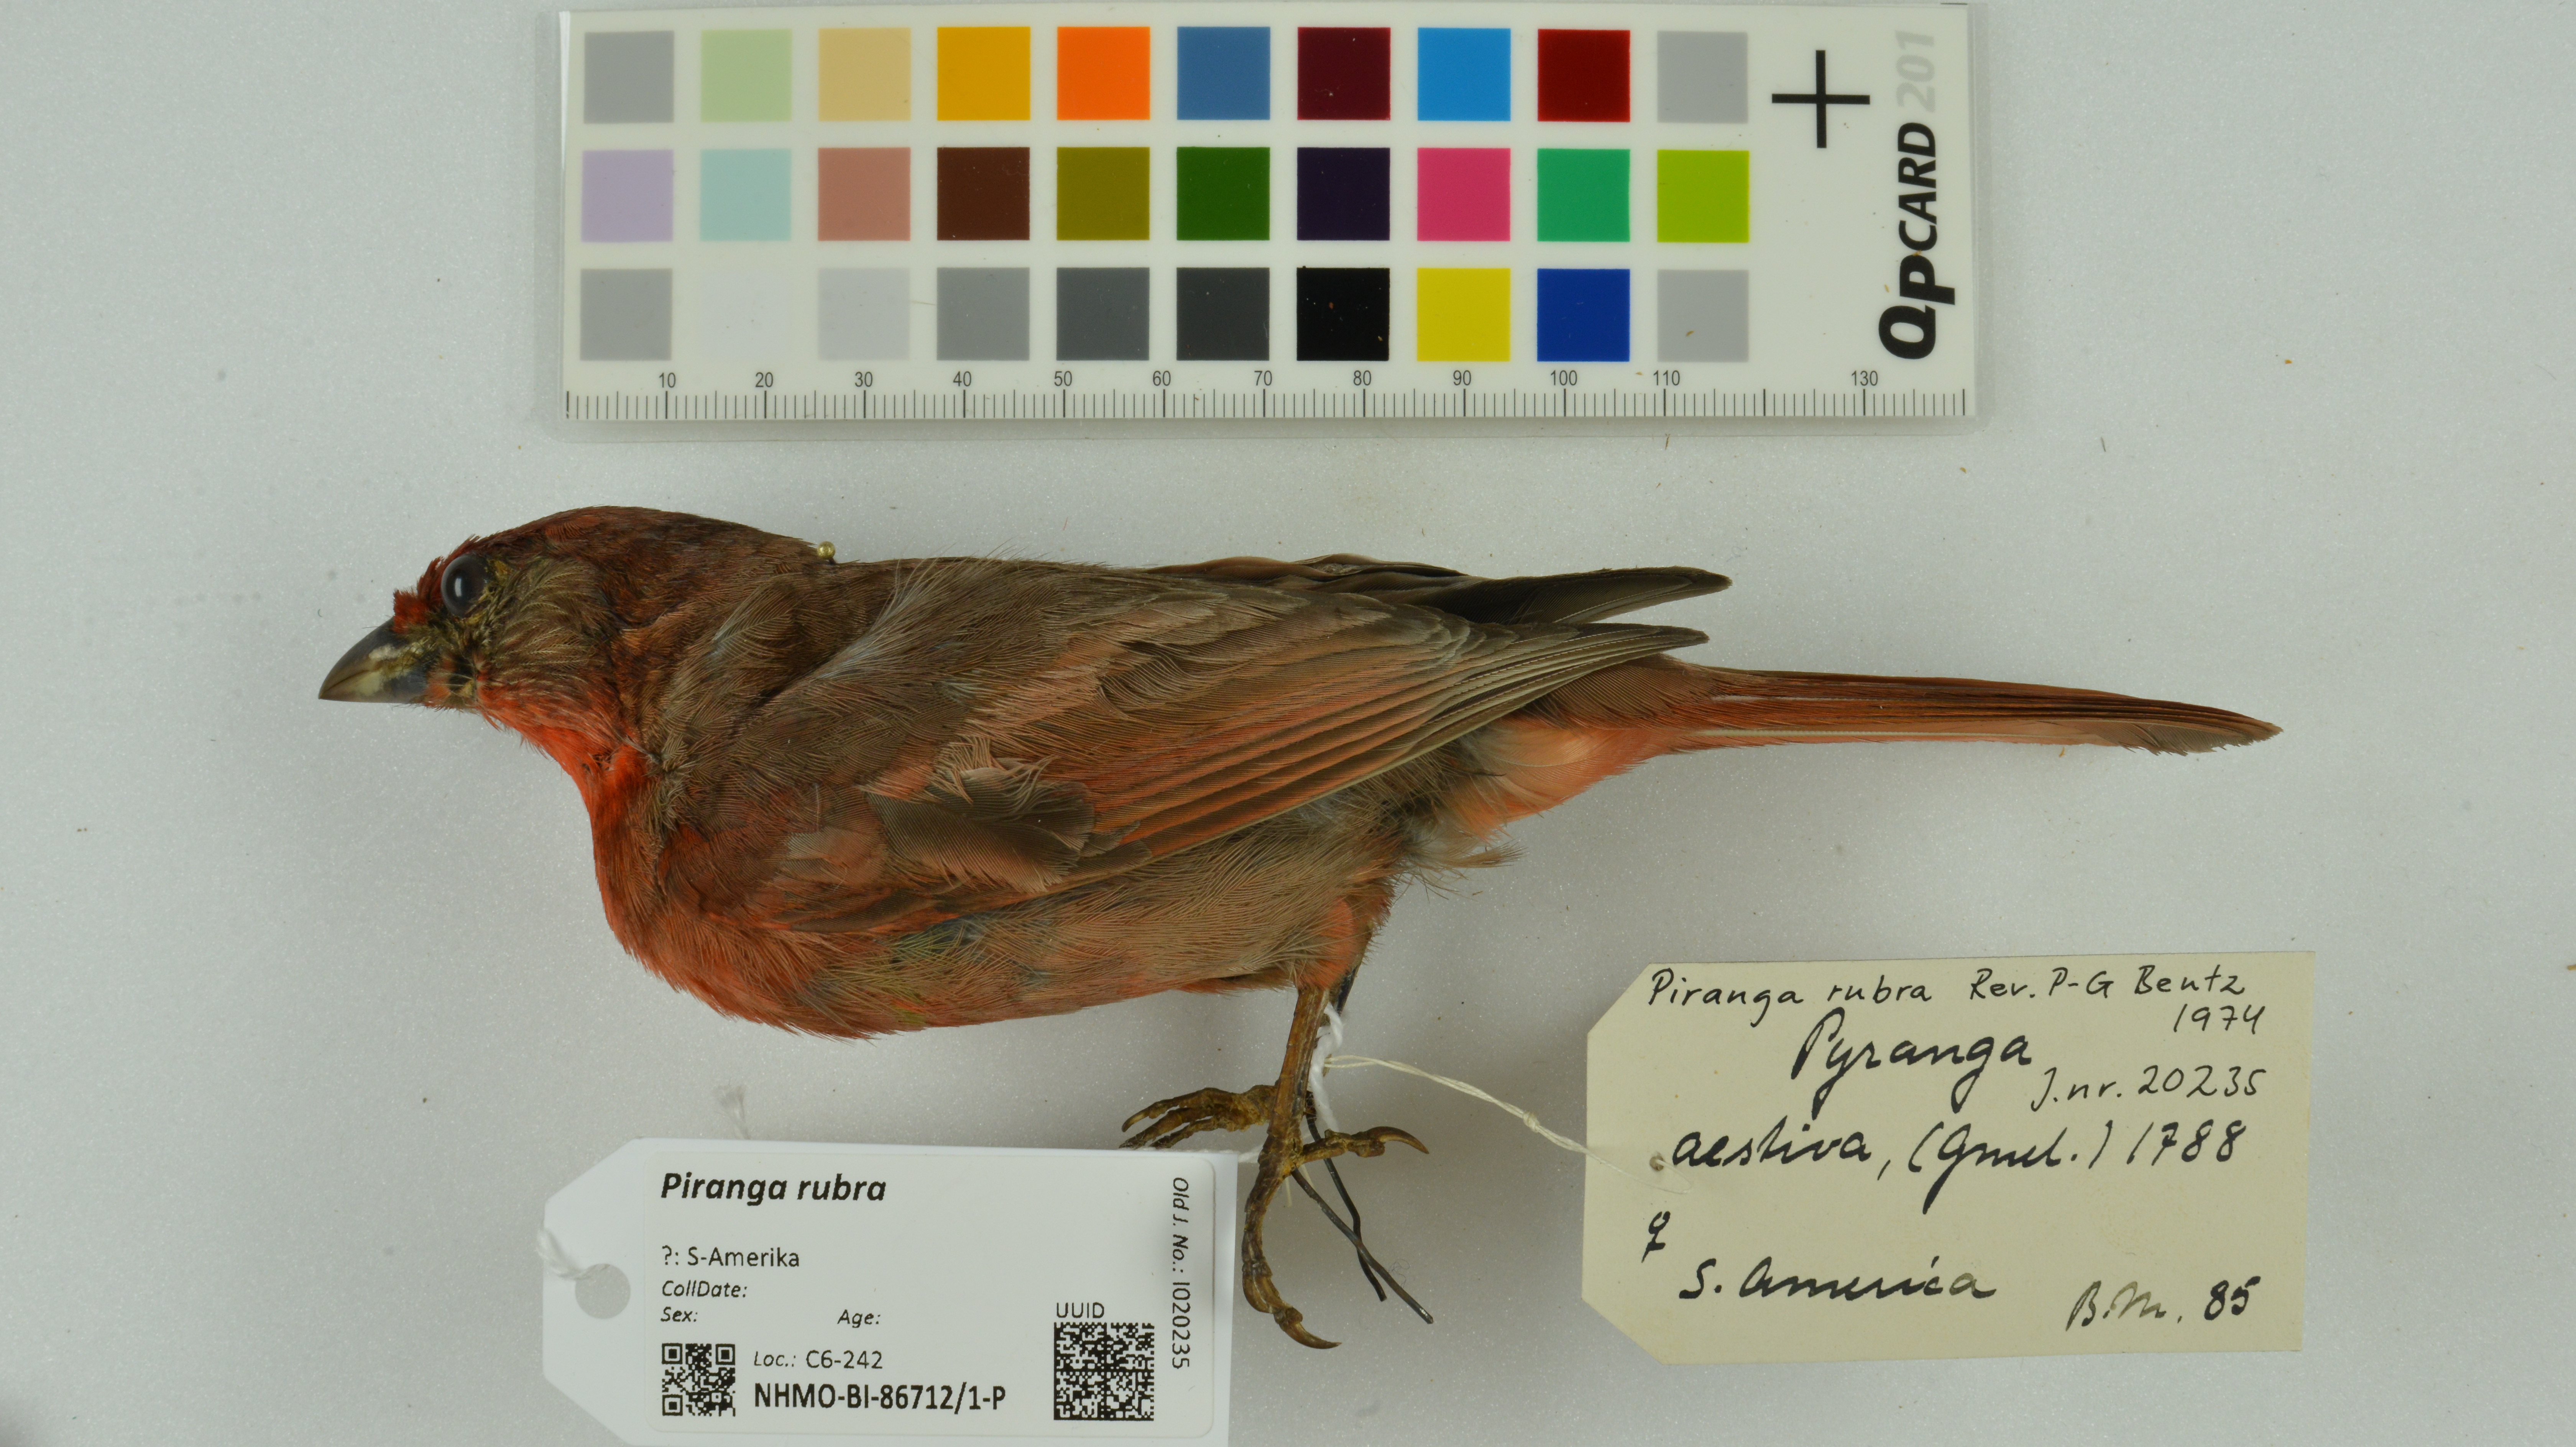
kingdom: Animalia
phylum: Chordata
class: Aves
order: Passeriformes
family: Cardinalidae
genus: Piranga
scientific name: Piranga rubra
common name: Summer tanager
